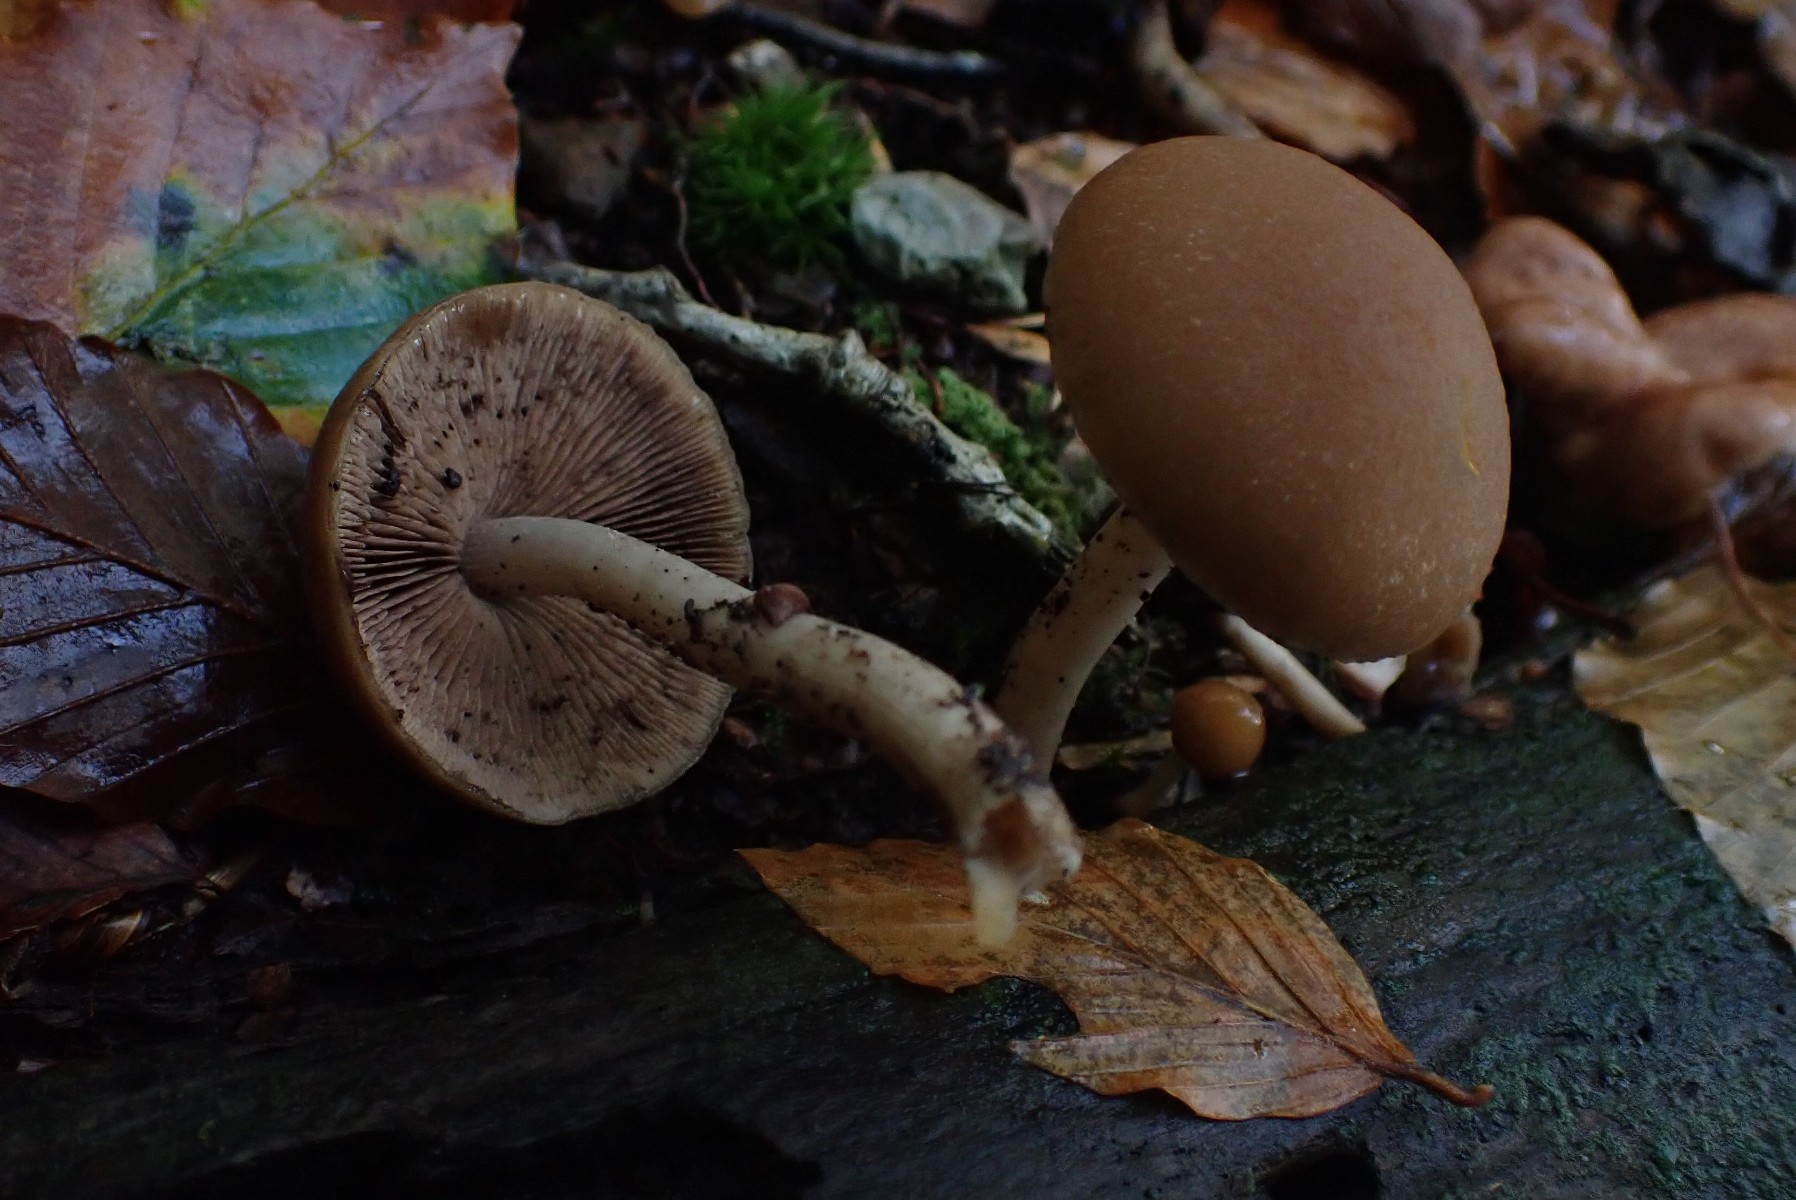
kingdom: Fungi
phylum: Basidiomycota
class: Agaricomycetes
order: Agaricales
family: Psathyrellaceae
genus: Psathyrella
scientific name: Psathyrella piluliformis
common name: lysstokket mørkhat
